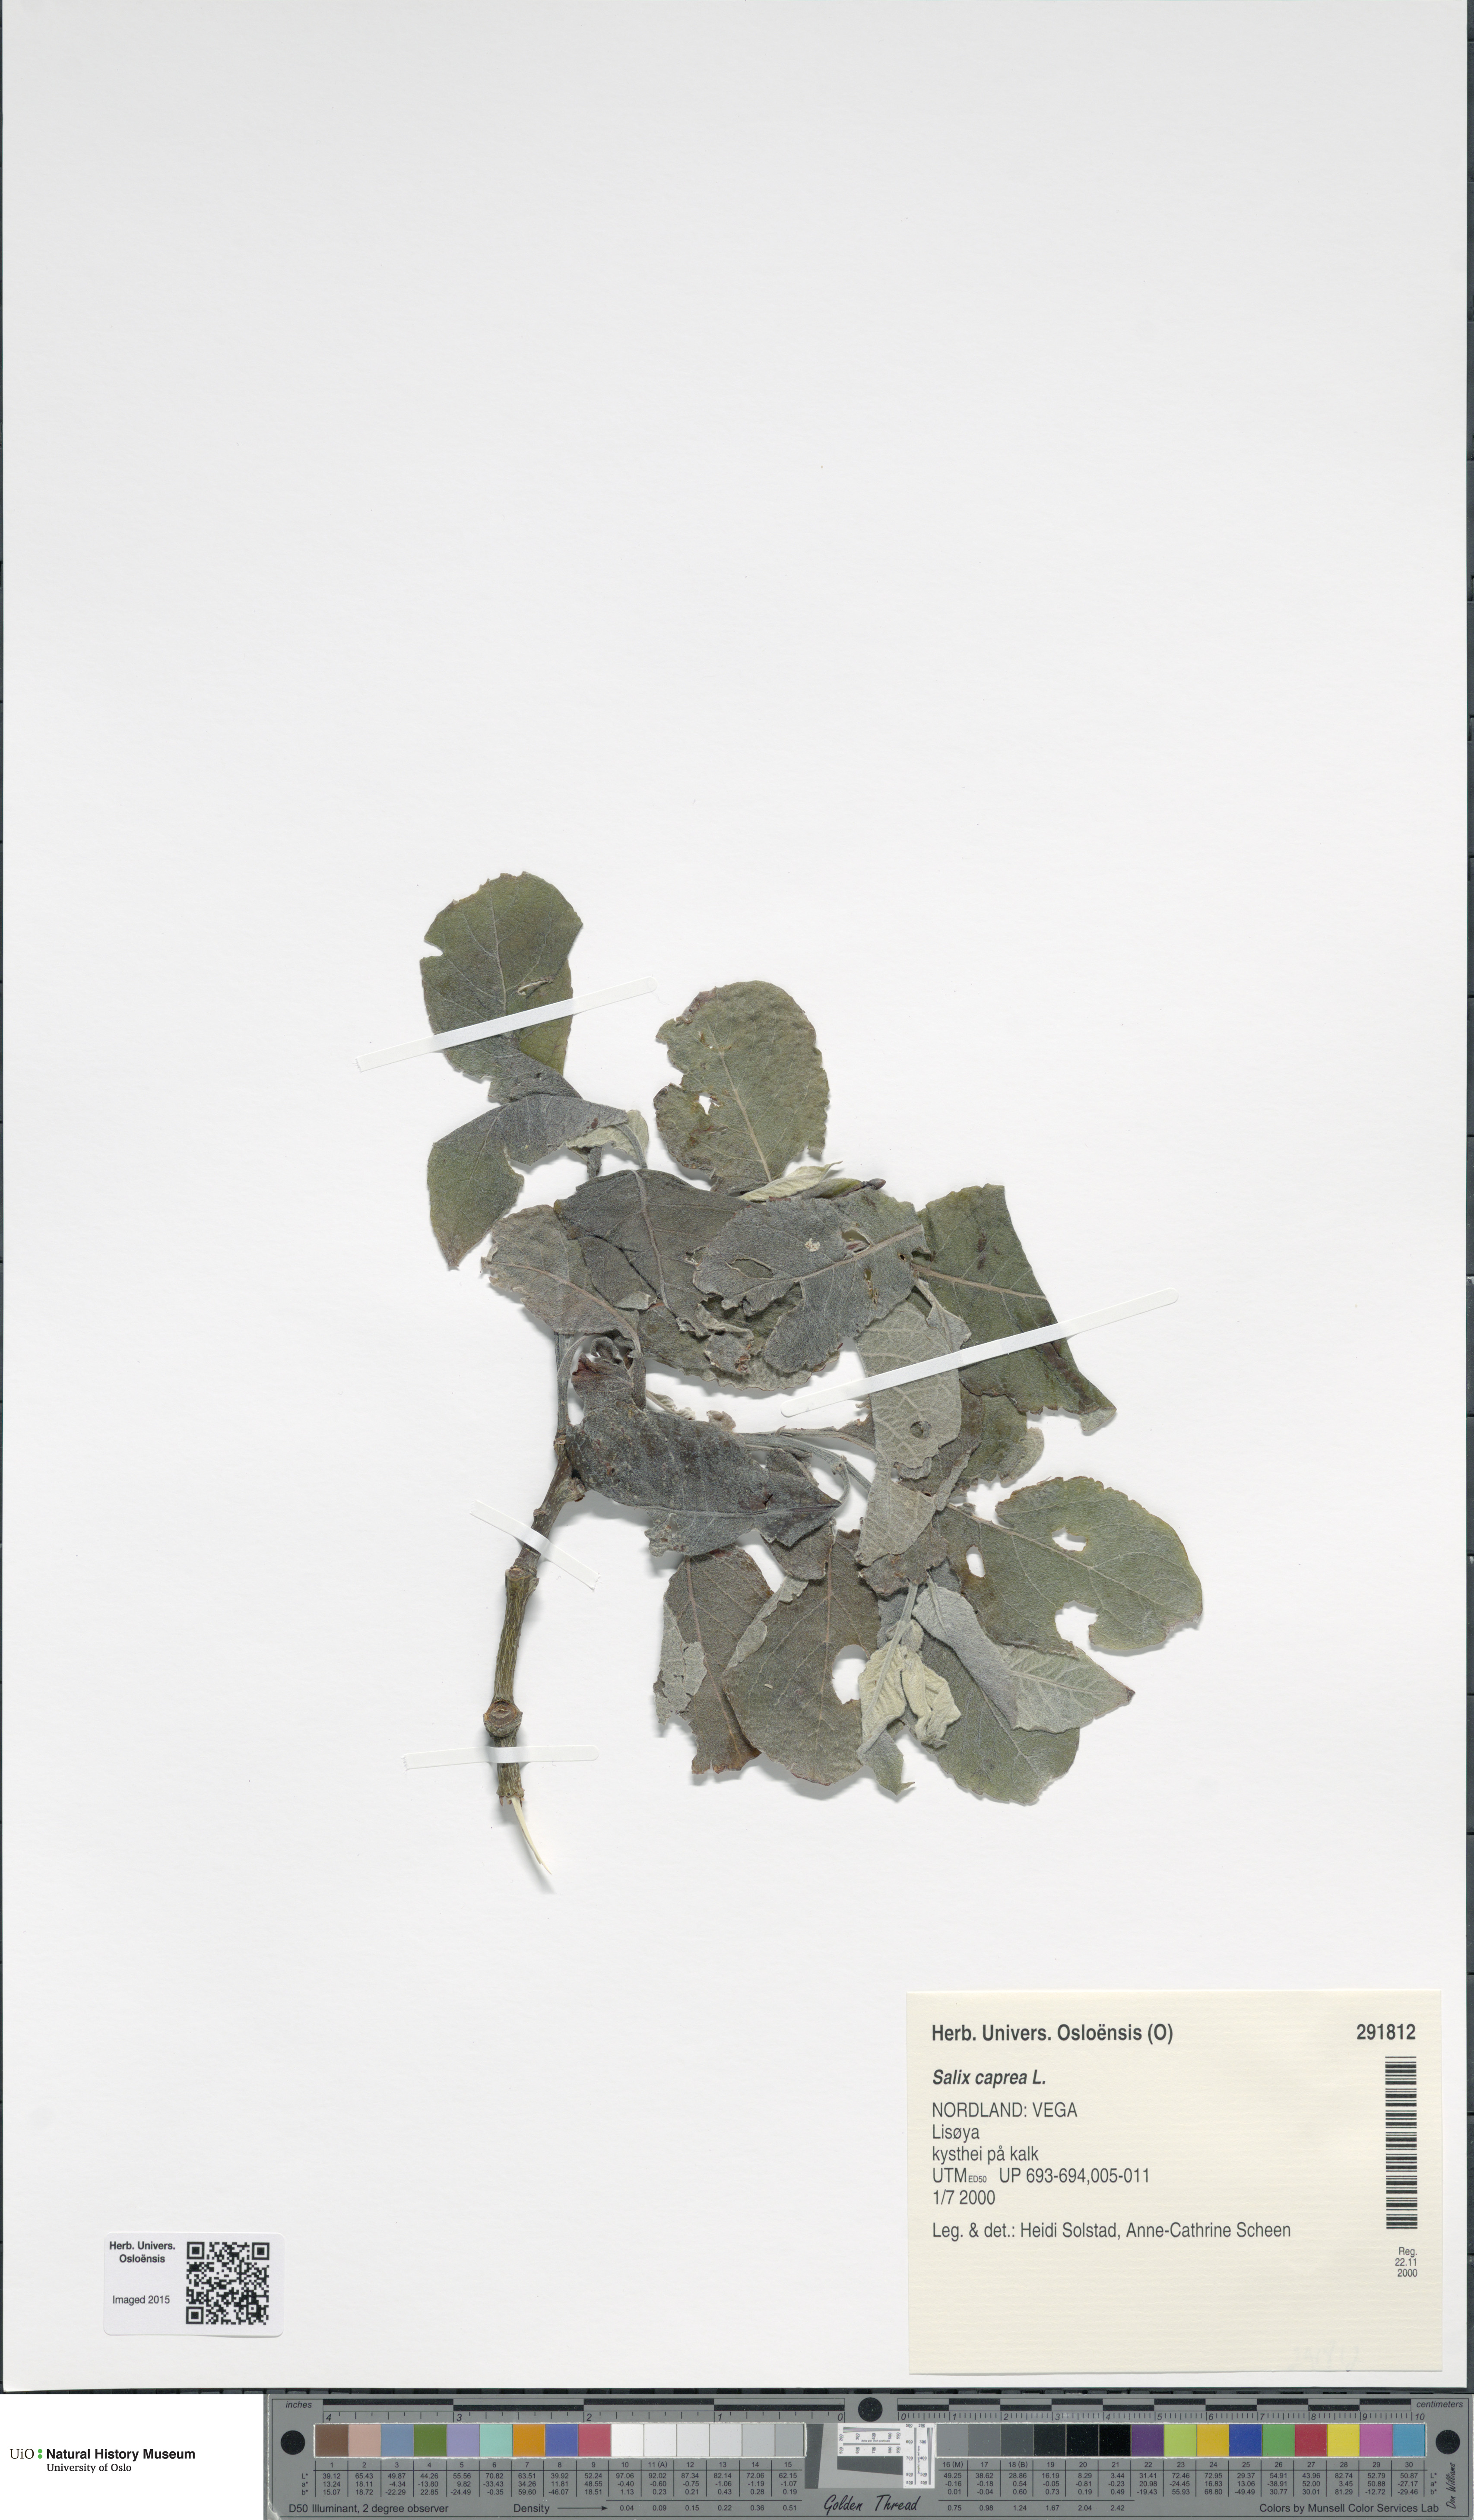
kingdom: Plantae
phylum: Tracheophyta
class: Magnoliopsida
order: Malpighiales
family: Salicaceae
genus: Salix
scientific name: Salix caprea
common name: Goat willow
